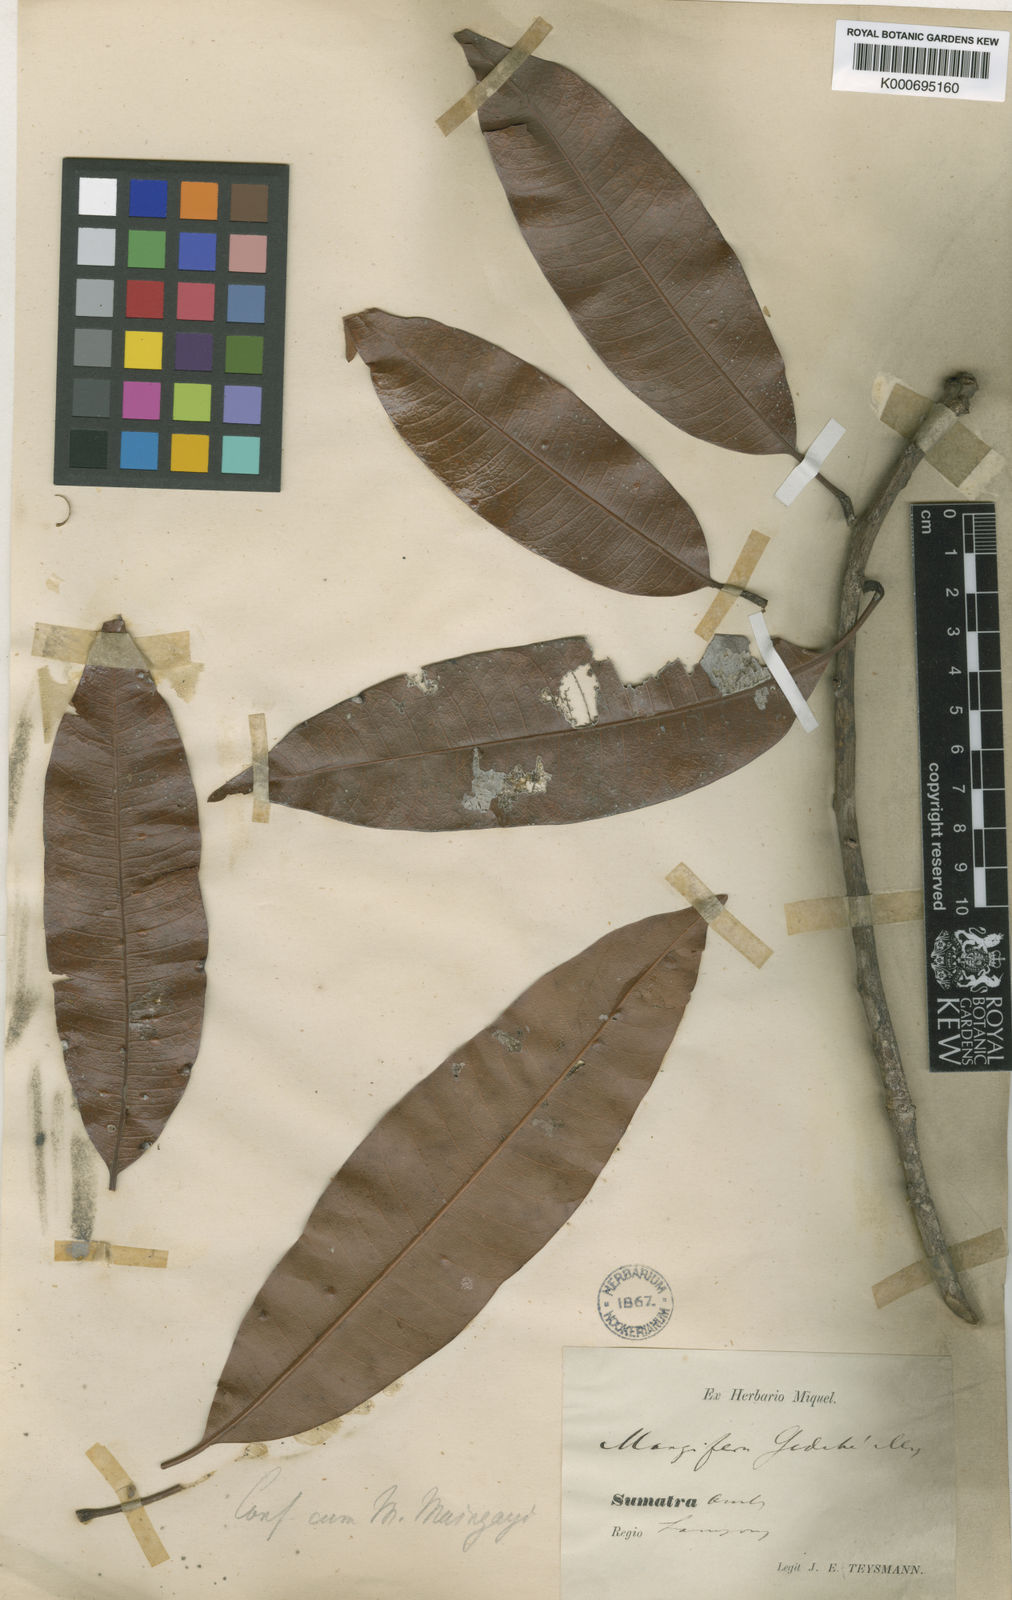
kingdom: Plantae
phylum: Tracheophyta
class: Magnoliopsida
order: Sapindales
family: Anacardiaceae
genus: Mangifera
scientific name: Mangifera gedebe
